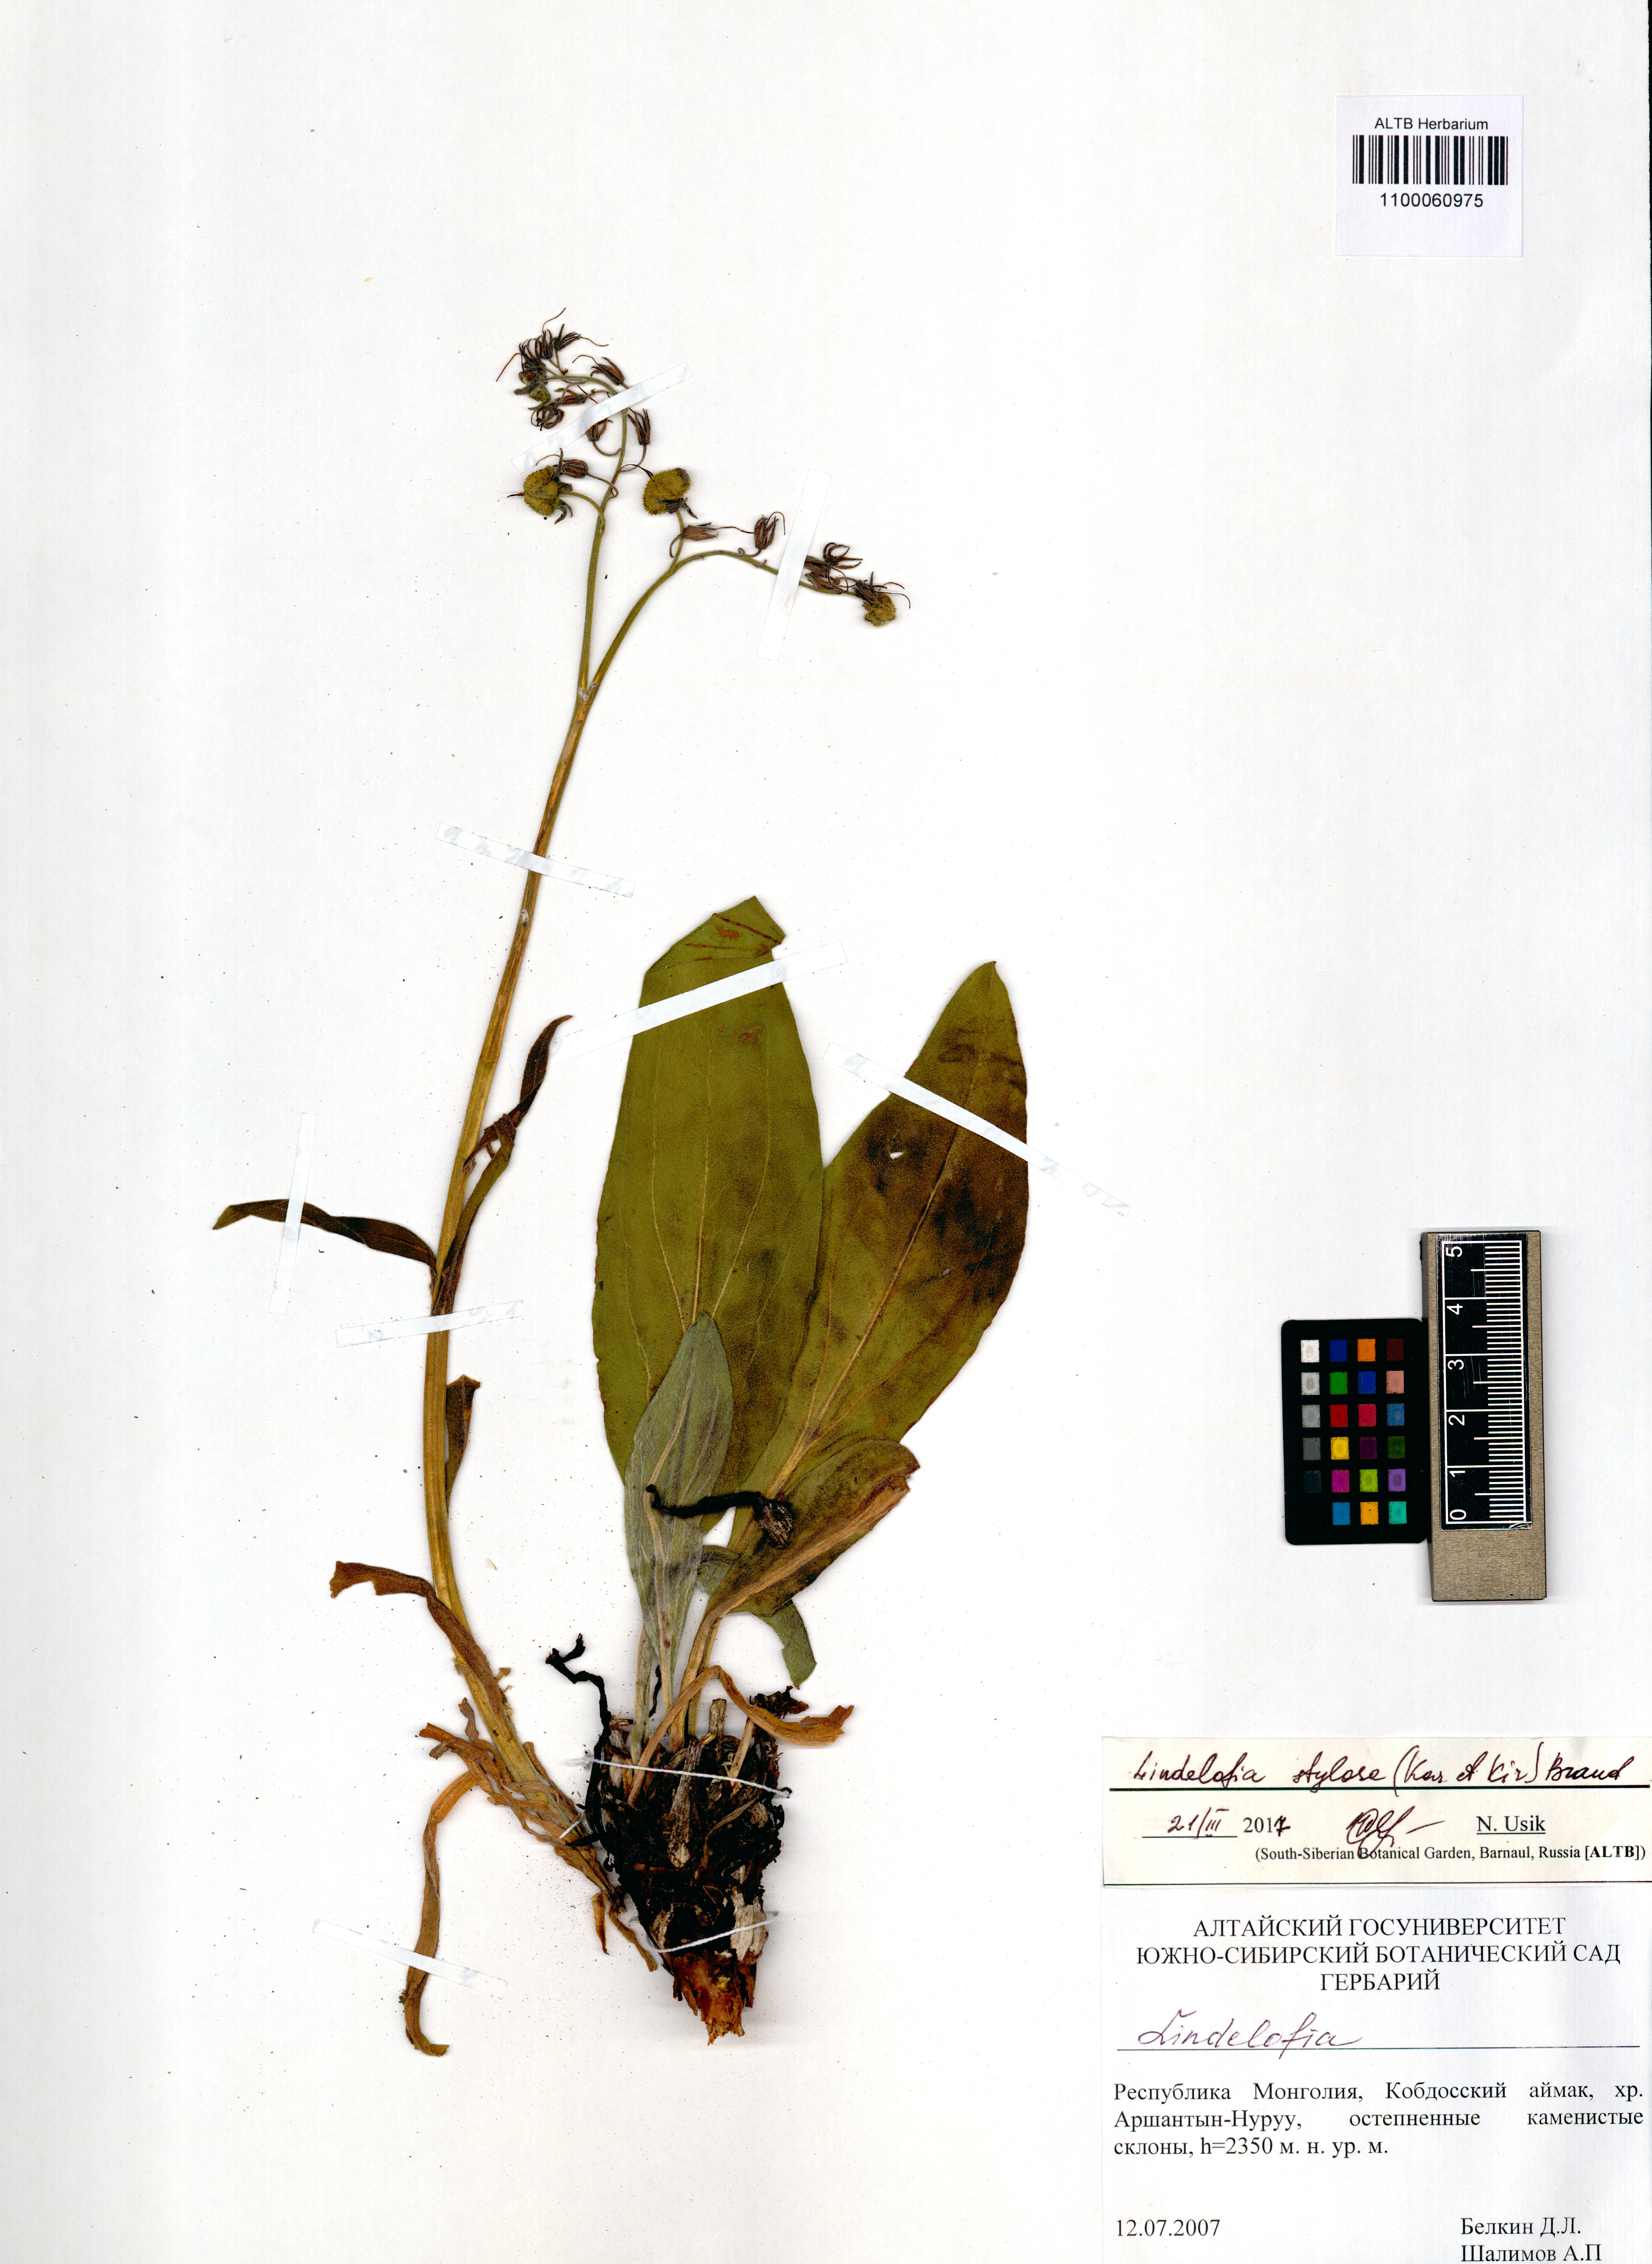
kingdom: Plantae
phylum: Tracheophyta
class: Magnoliopsida
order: Boraginales
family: Boraginaceae
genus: Lindelofia
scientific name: Lindelofia stylosa
